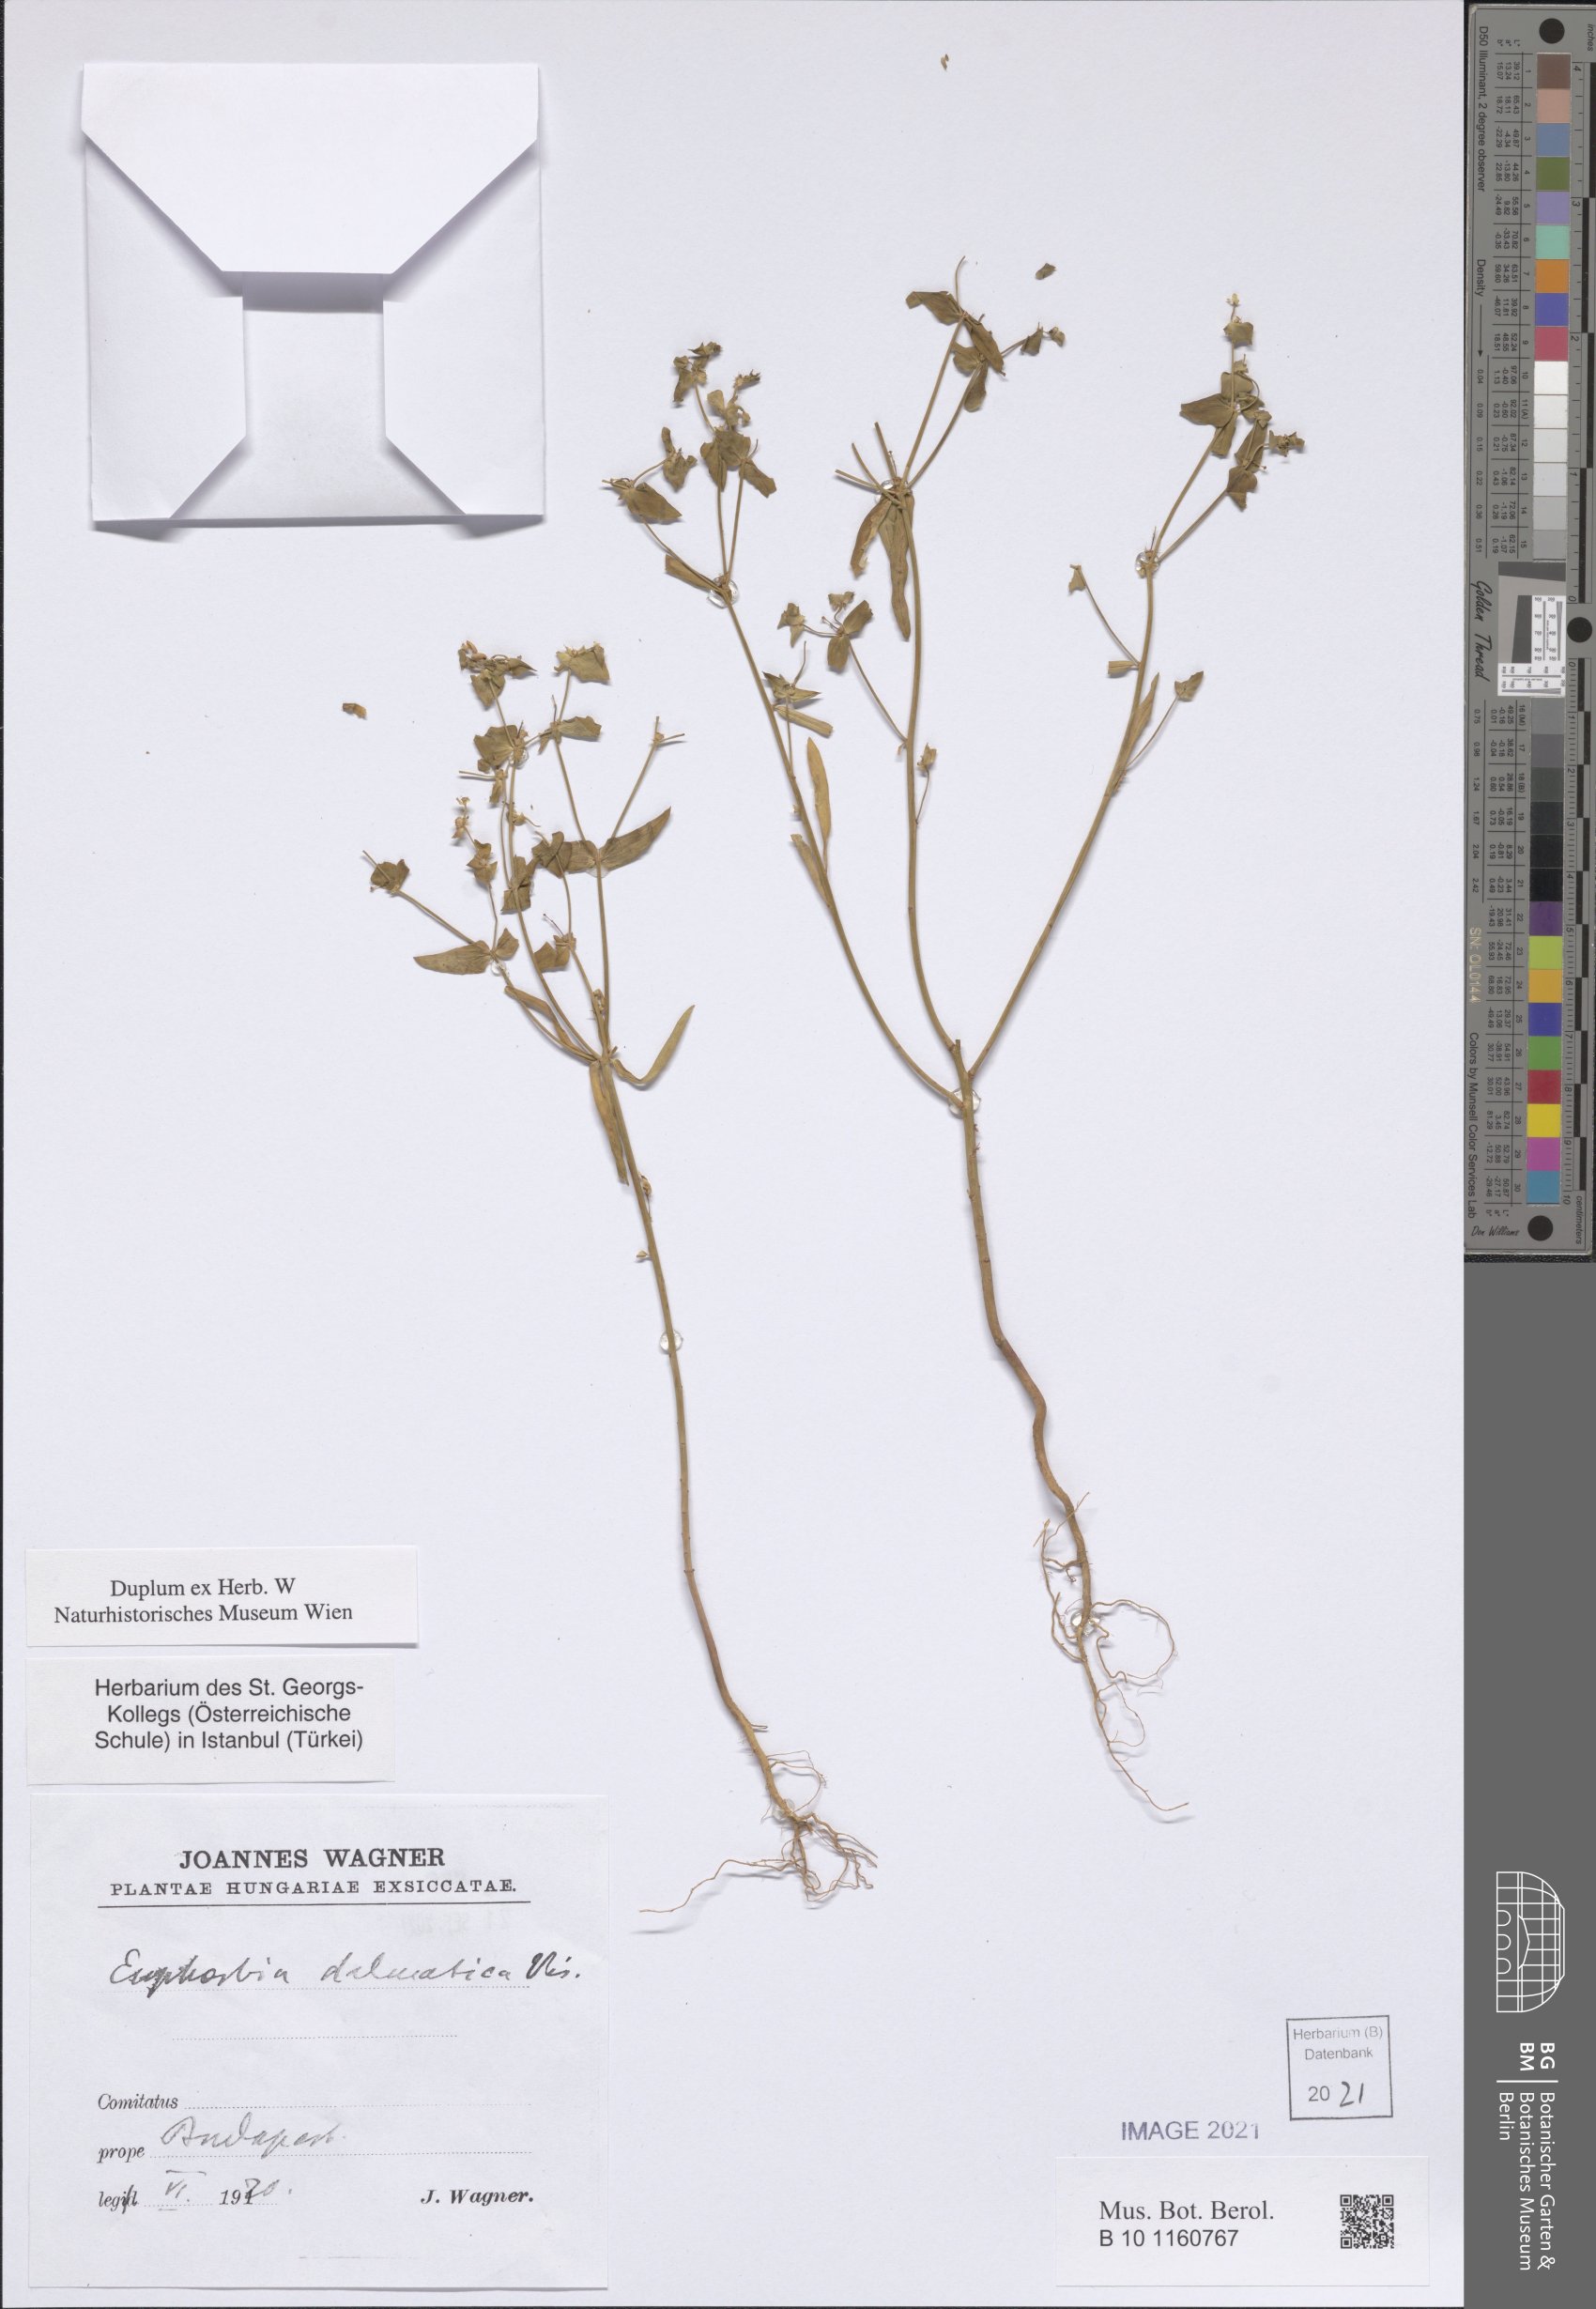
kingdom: Plantae
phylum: Tracheophyta
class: Magnoliopsida
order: Malpighiales
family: Euphorbiaceae
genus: Euphorbia
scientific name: Euphorbia taurinensis
